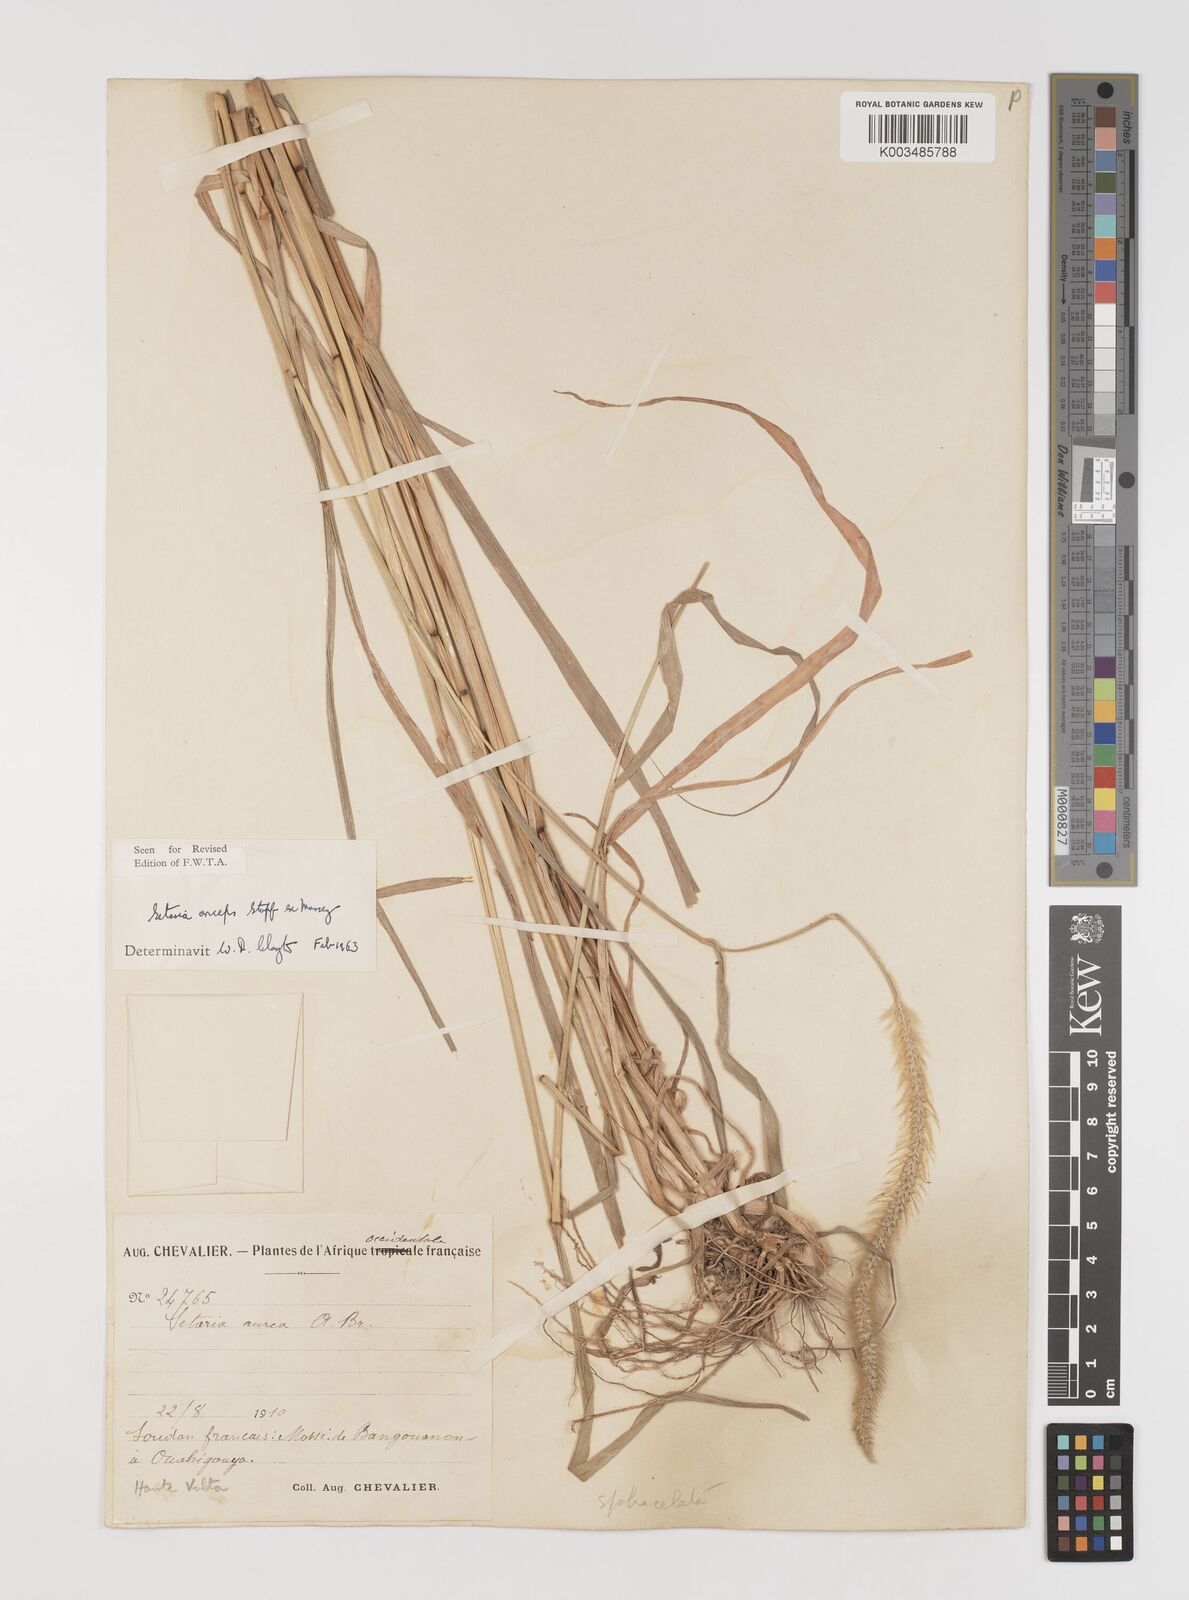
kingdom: Plantae
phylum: Tracheophyta
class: Liliopsida
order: Poales
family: Poaceae
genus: Setaria
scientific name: Setaria sphacelata
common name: African bristlegrass
